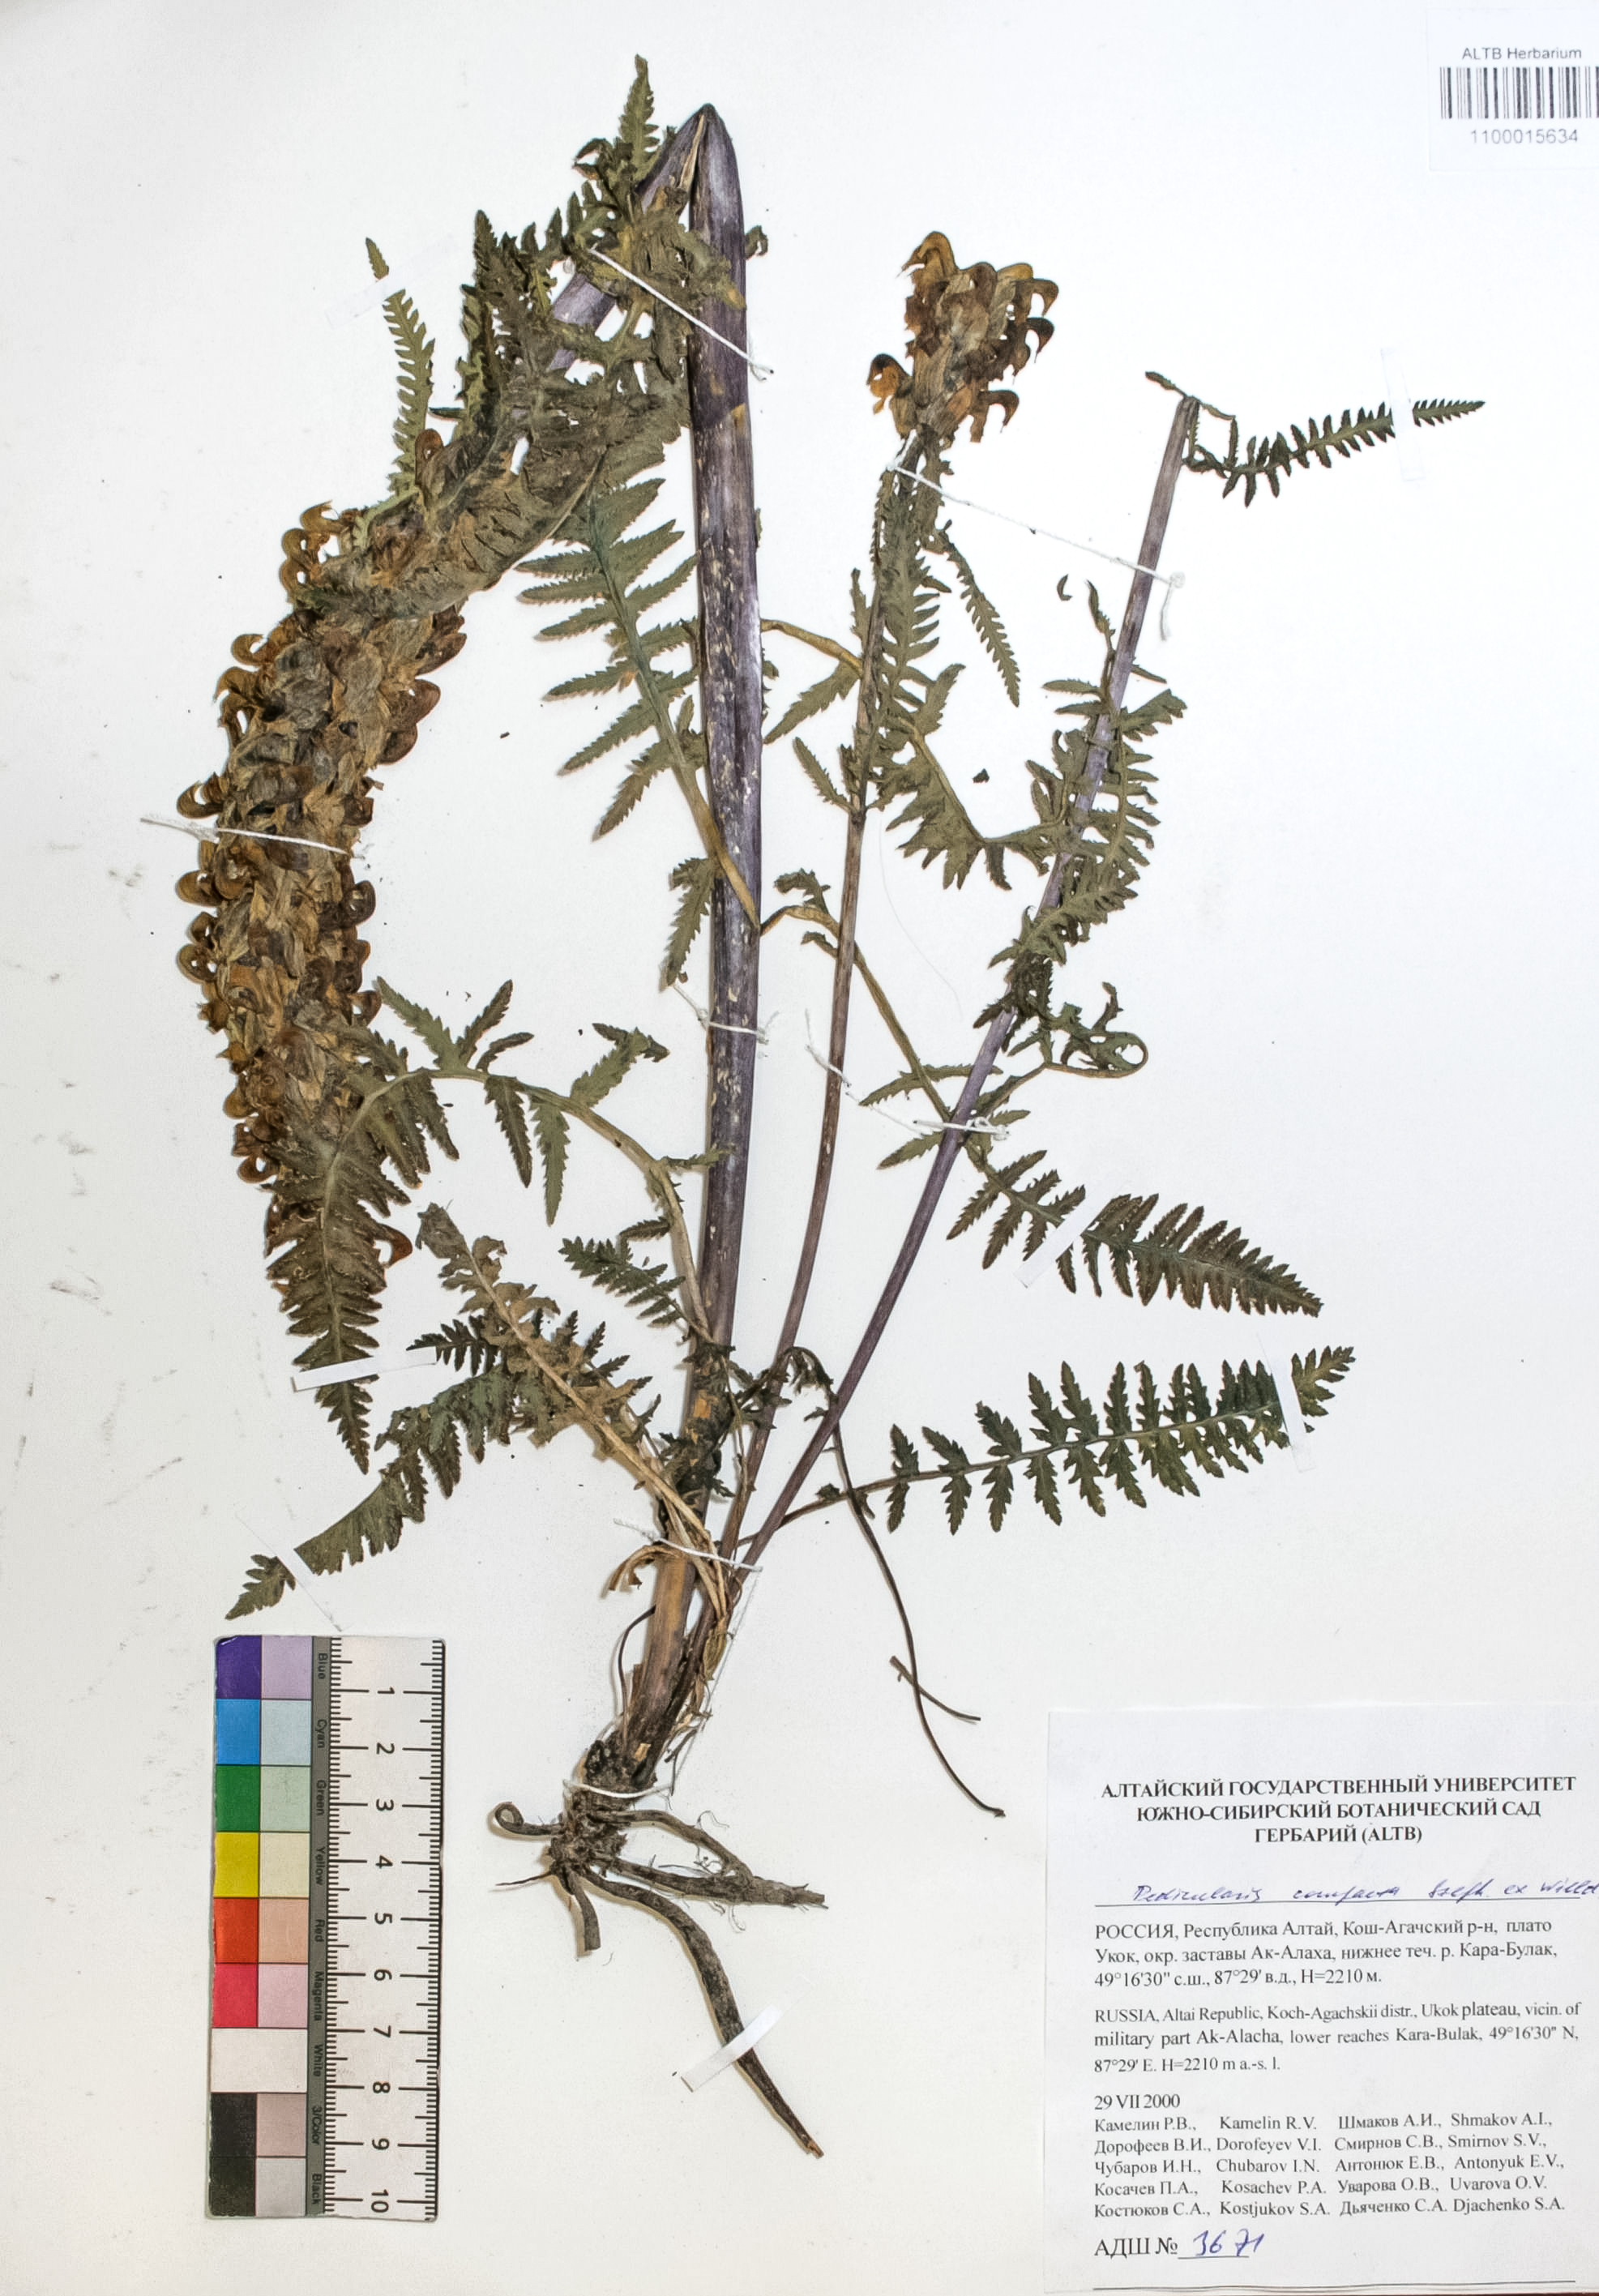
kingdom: Plantae
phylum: Tracheophyta
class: Magnoliopsida
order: Lamiales
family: Orobanchaceae
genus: Pedicularis
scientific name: Pedicularis compacta
